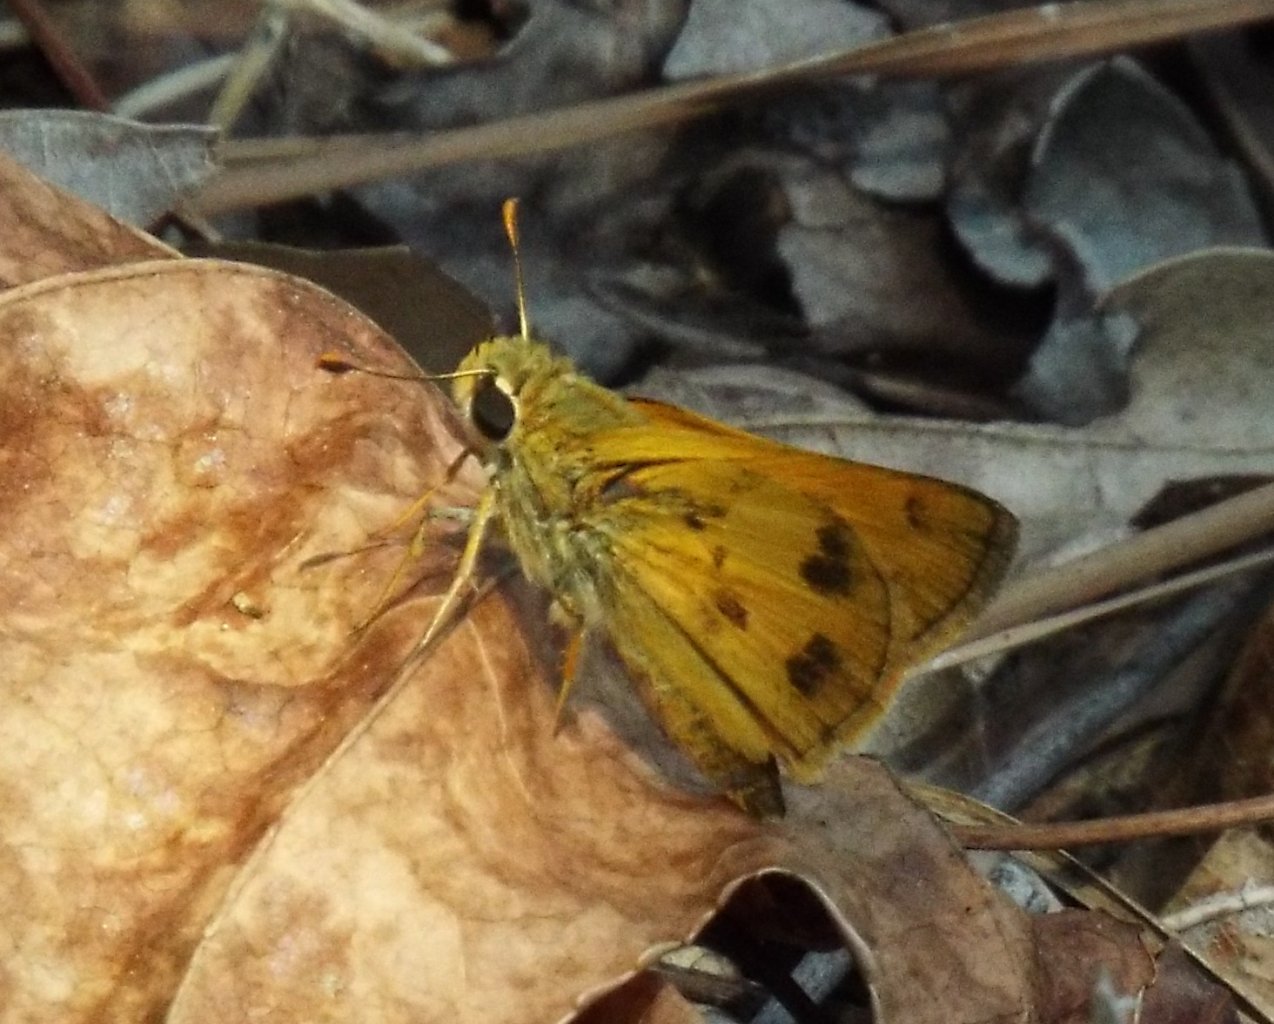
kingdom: Animalia
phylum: Arthropoda
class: Insecta
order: Lepidoptera
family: Hesperiidae
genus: Polites
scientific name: Polites vibex
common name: Whirlabout
